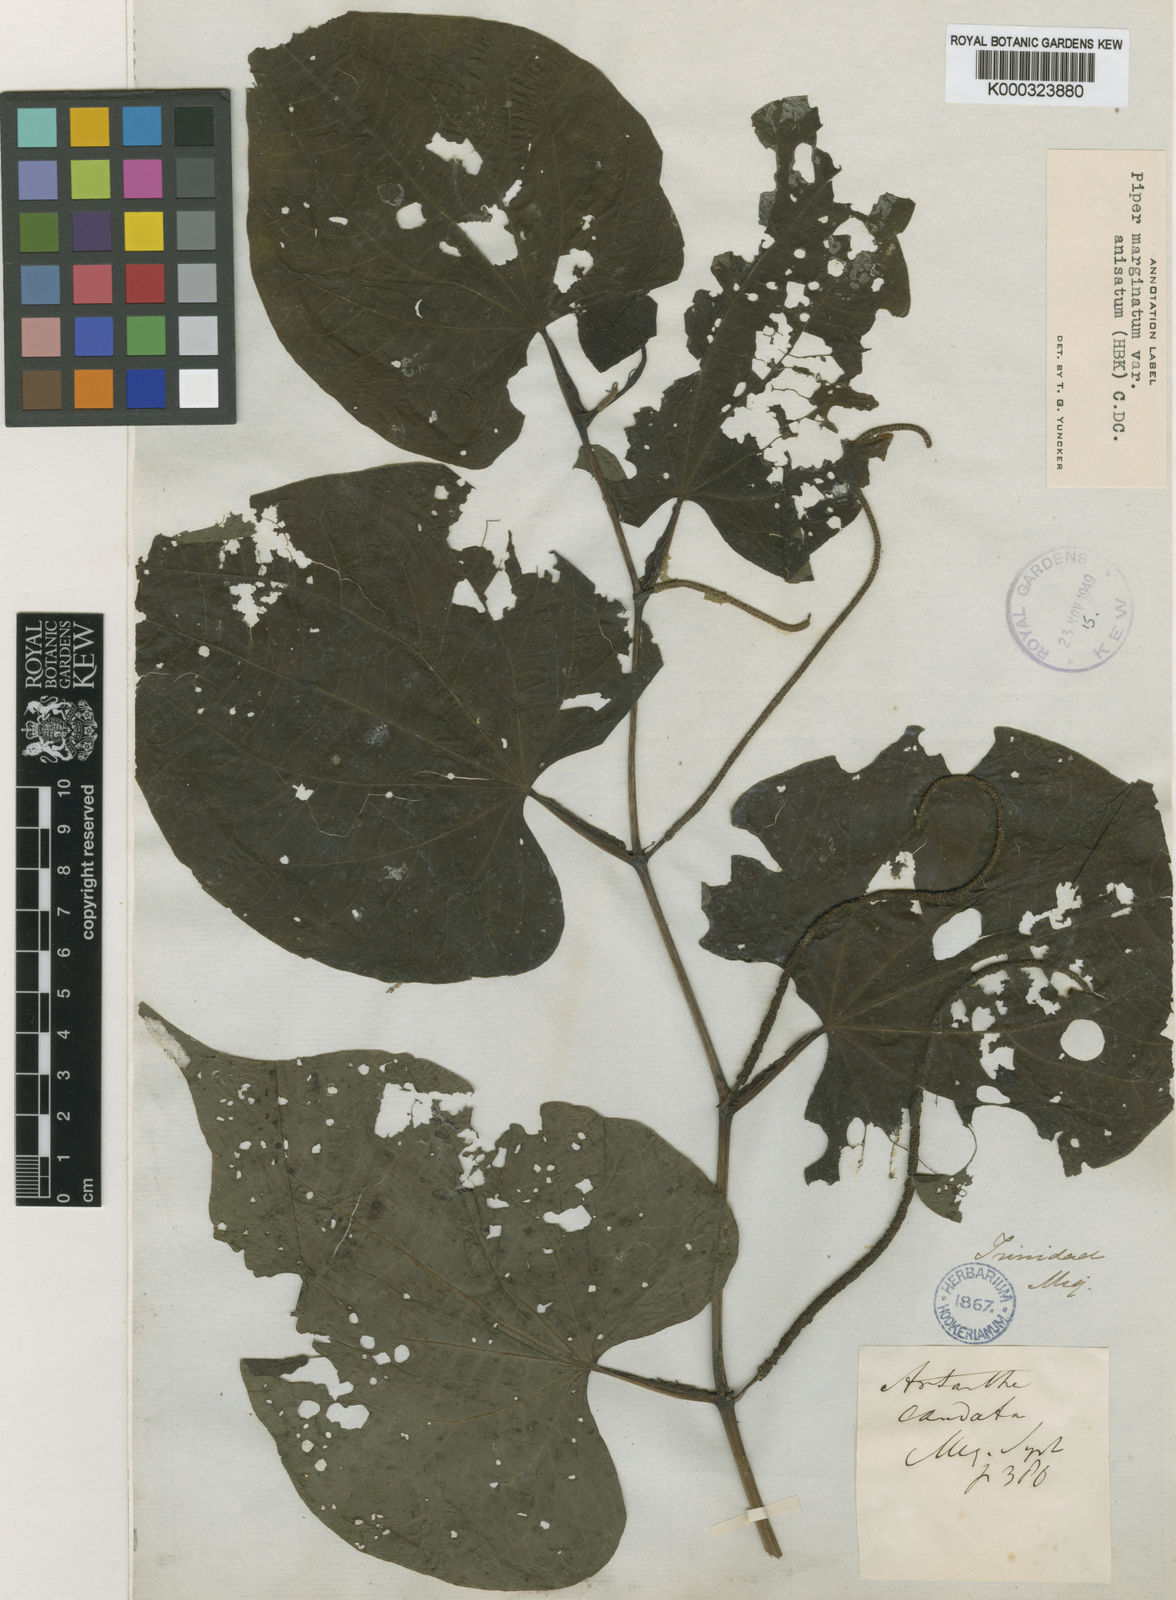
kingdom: Plantae
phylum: Tracheophyta
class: Magnoliopsida
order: Piperales
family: Piperaceae
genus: Piper
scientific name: Piper marginatum
